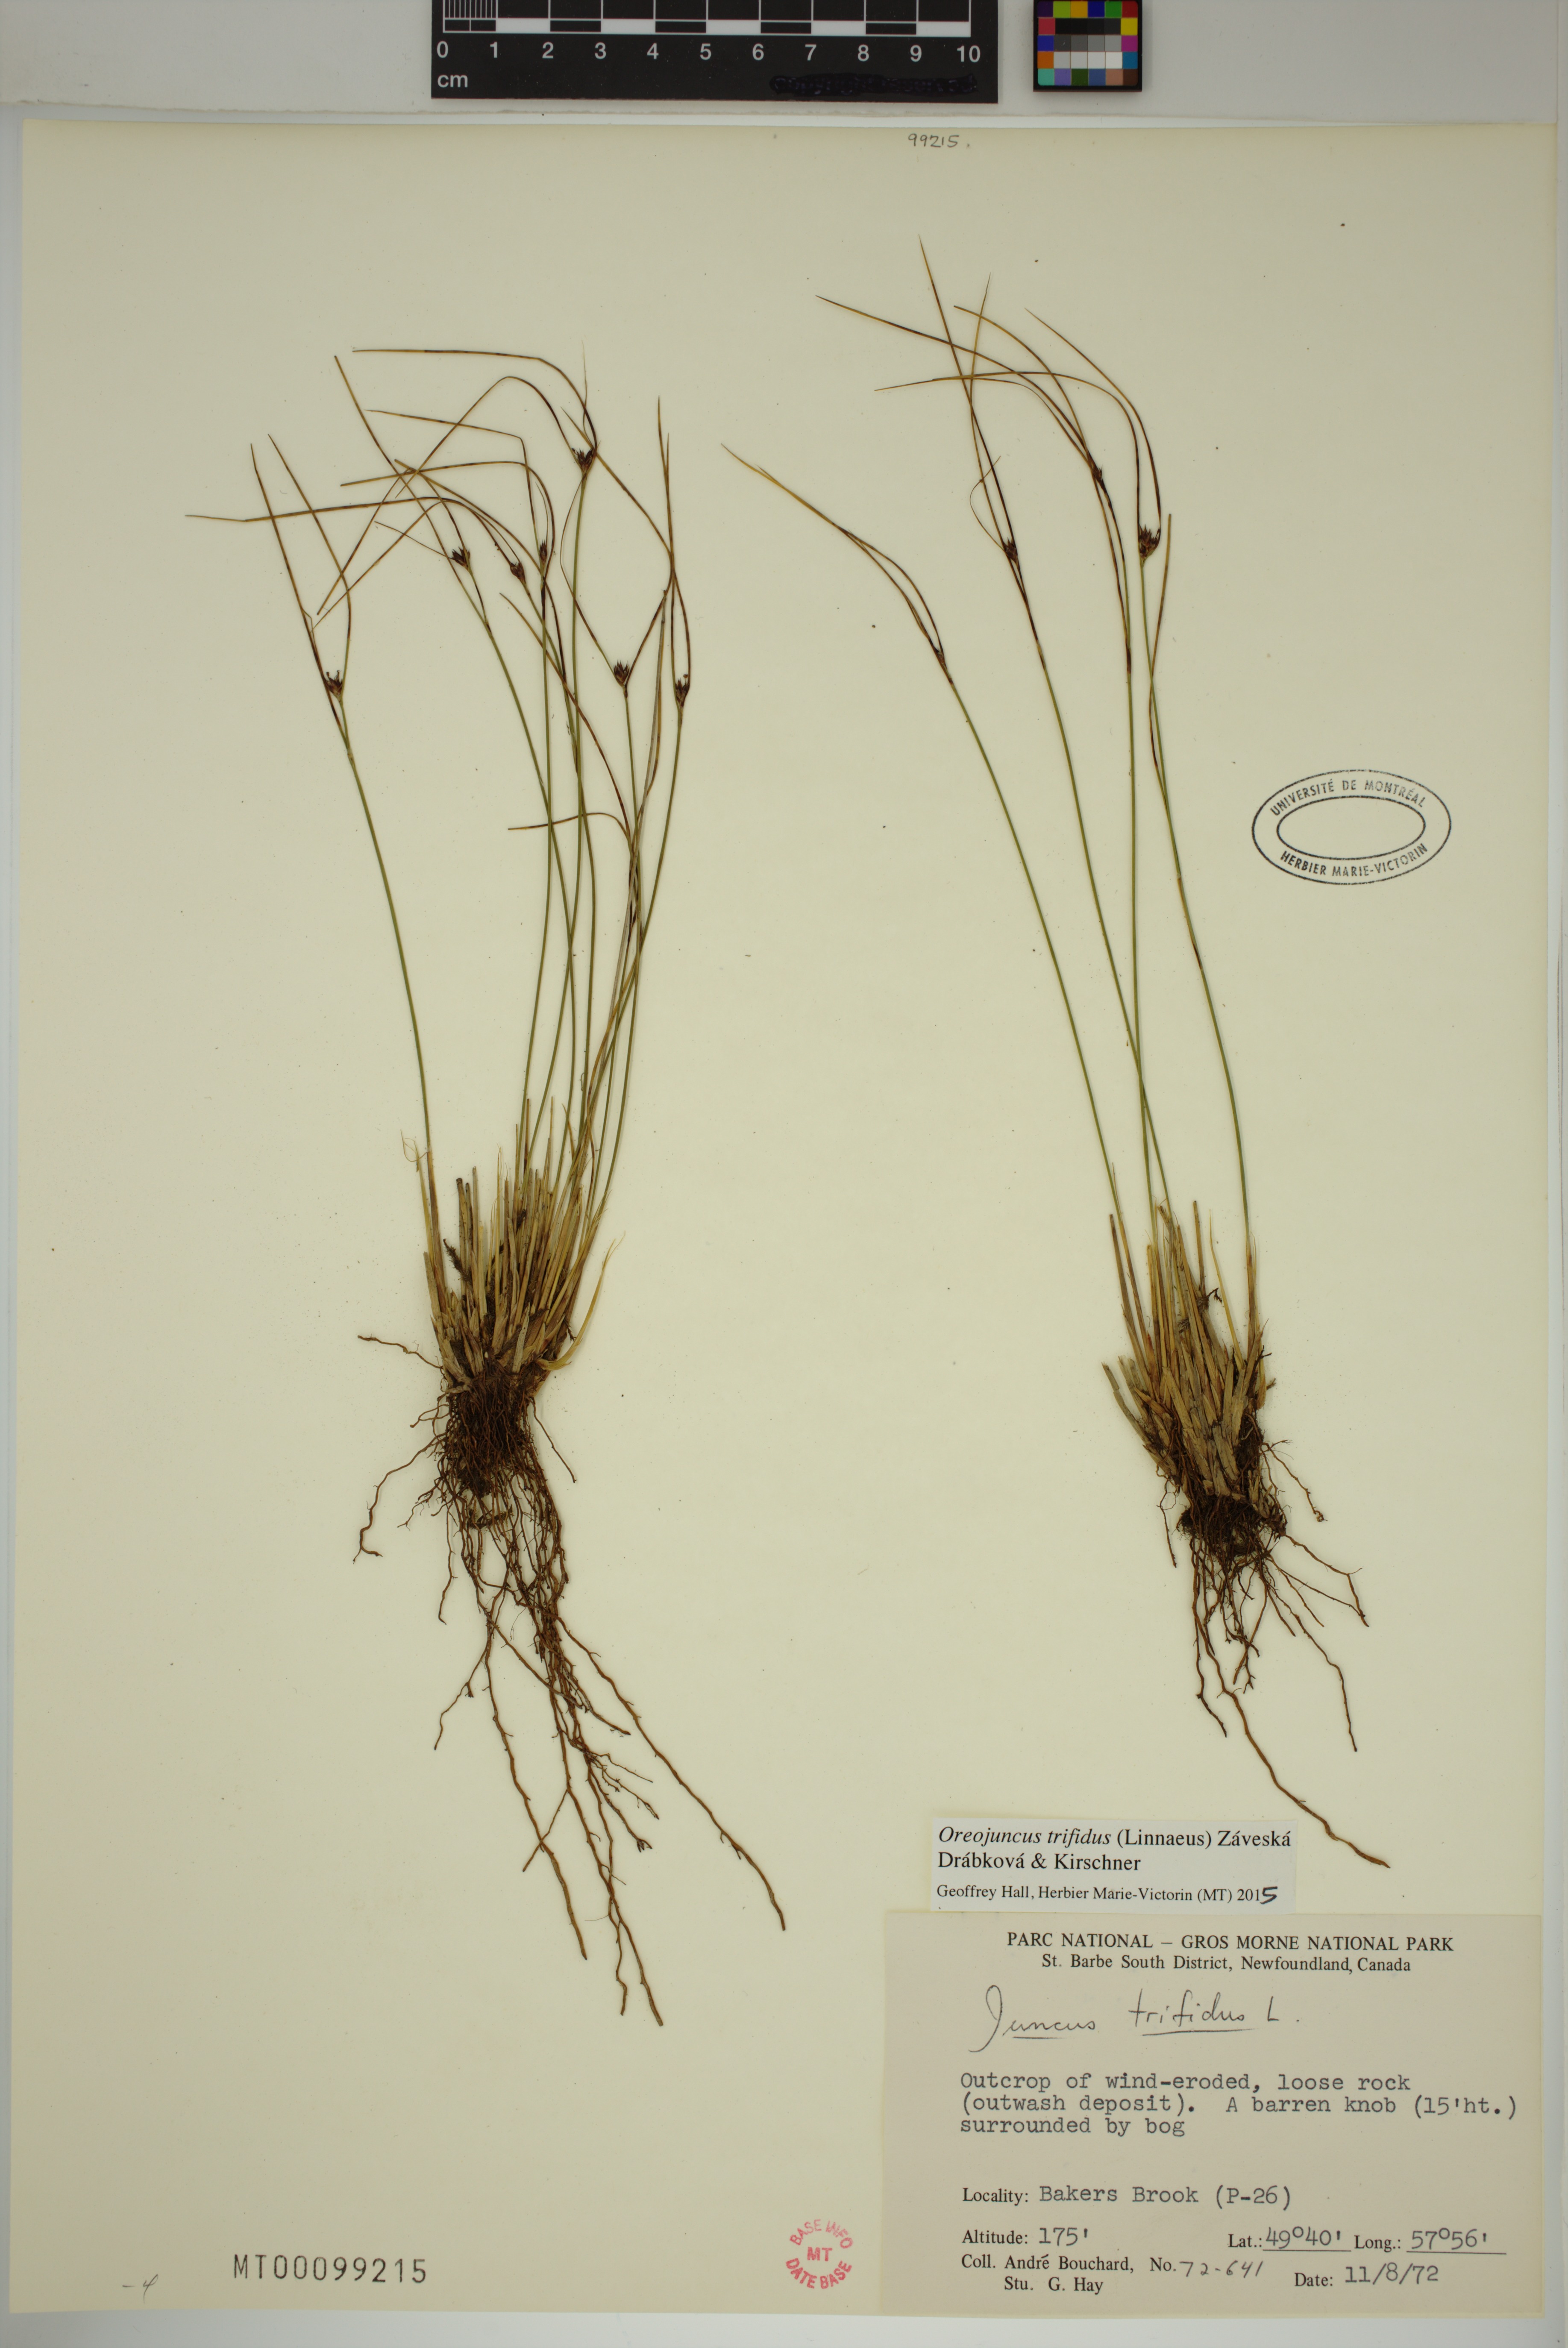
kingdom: Plantae
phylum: Tracheophyta
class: Liliopsida
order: Poales
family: Juncaceae
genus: Oreojuncus
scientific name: Oreojuncus trifidus
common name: Highland rush
